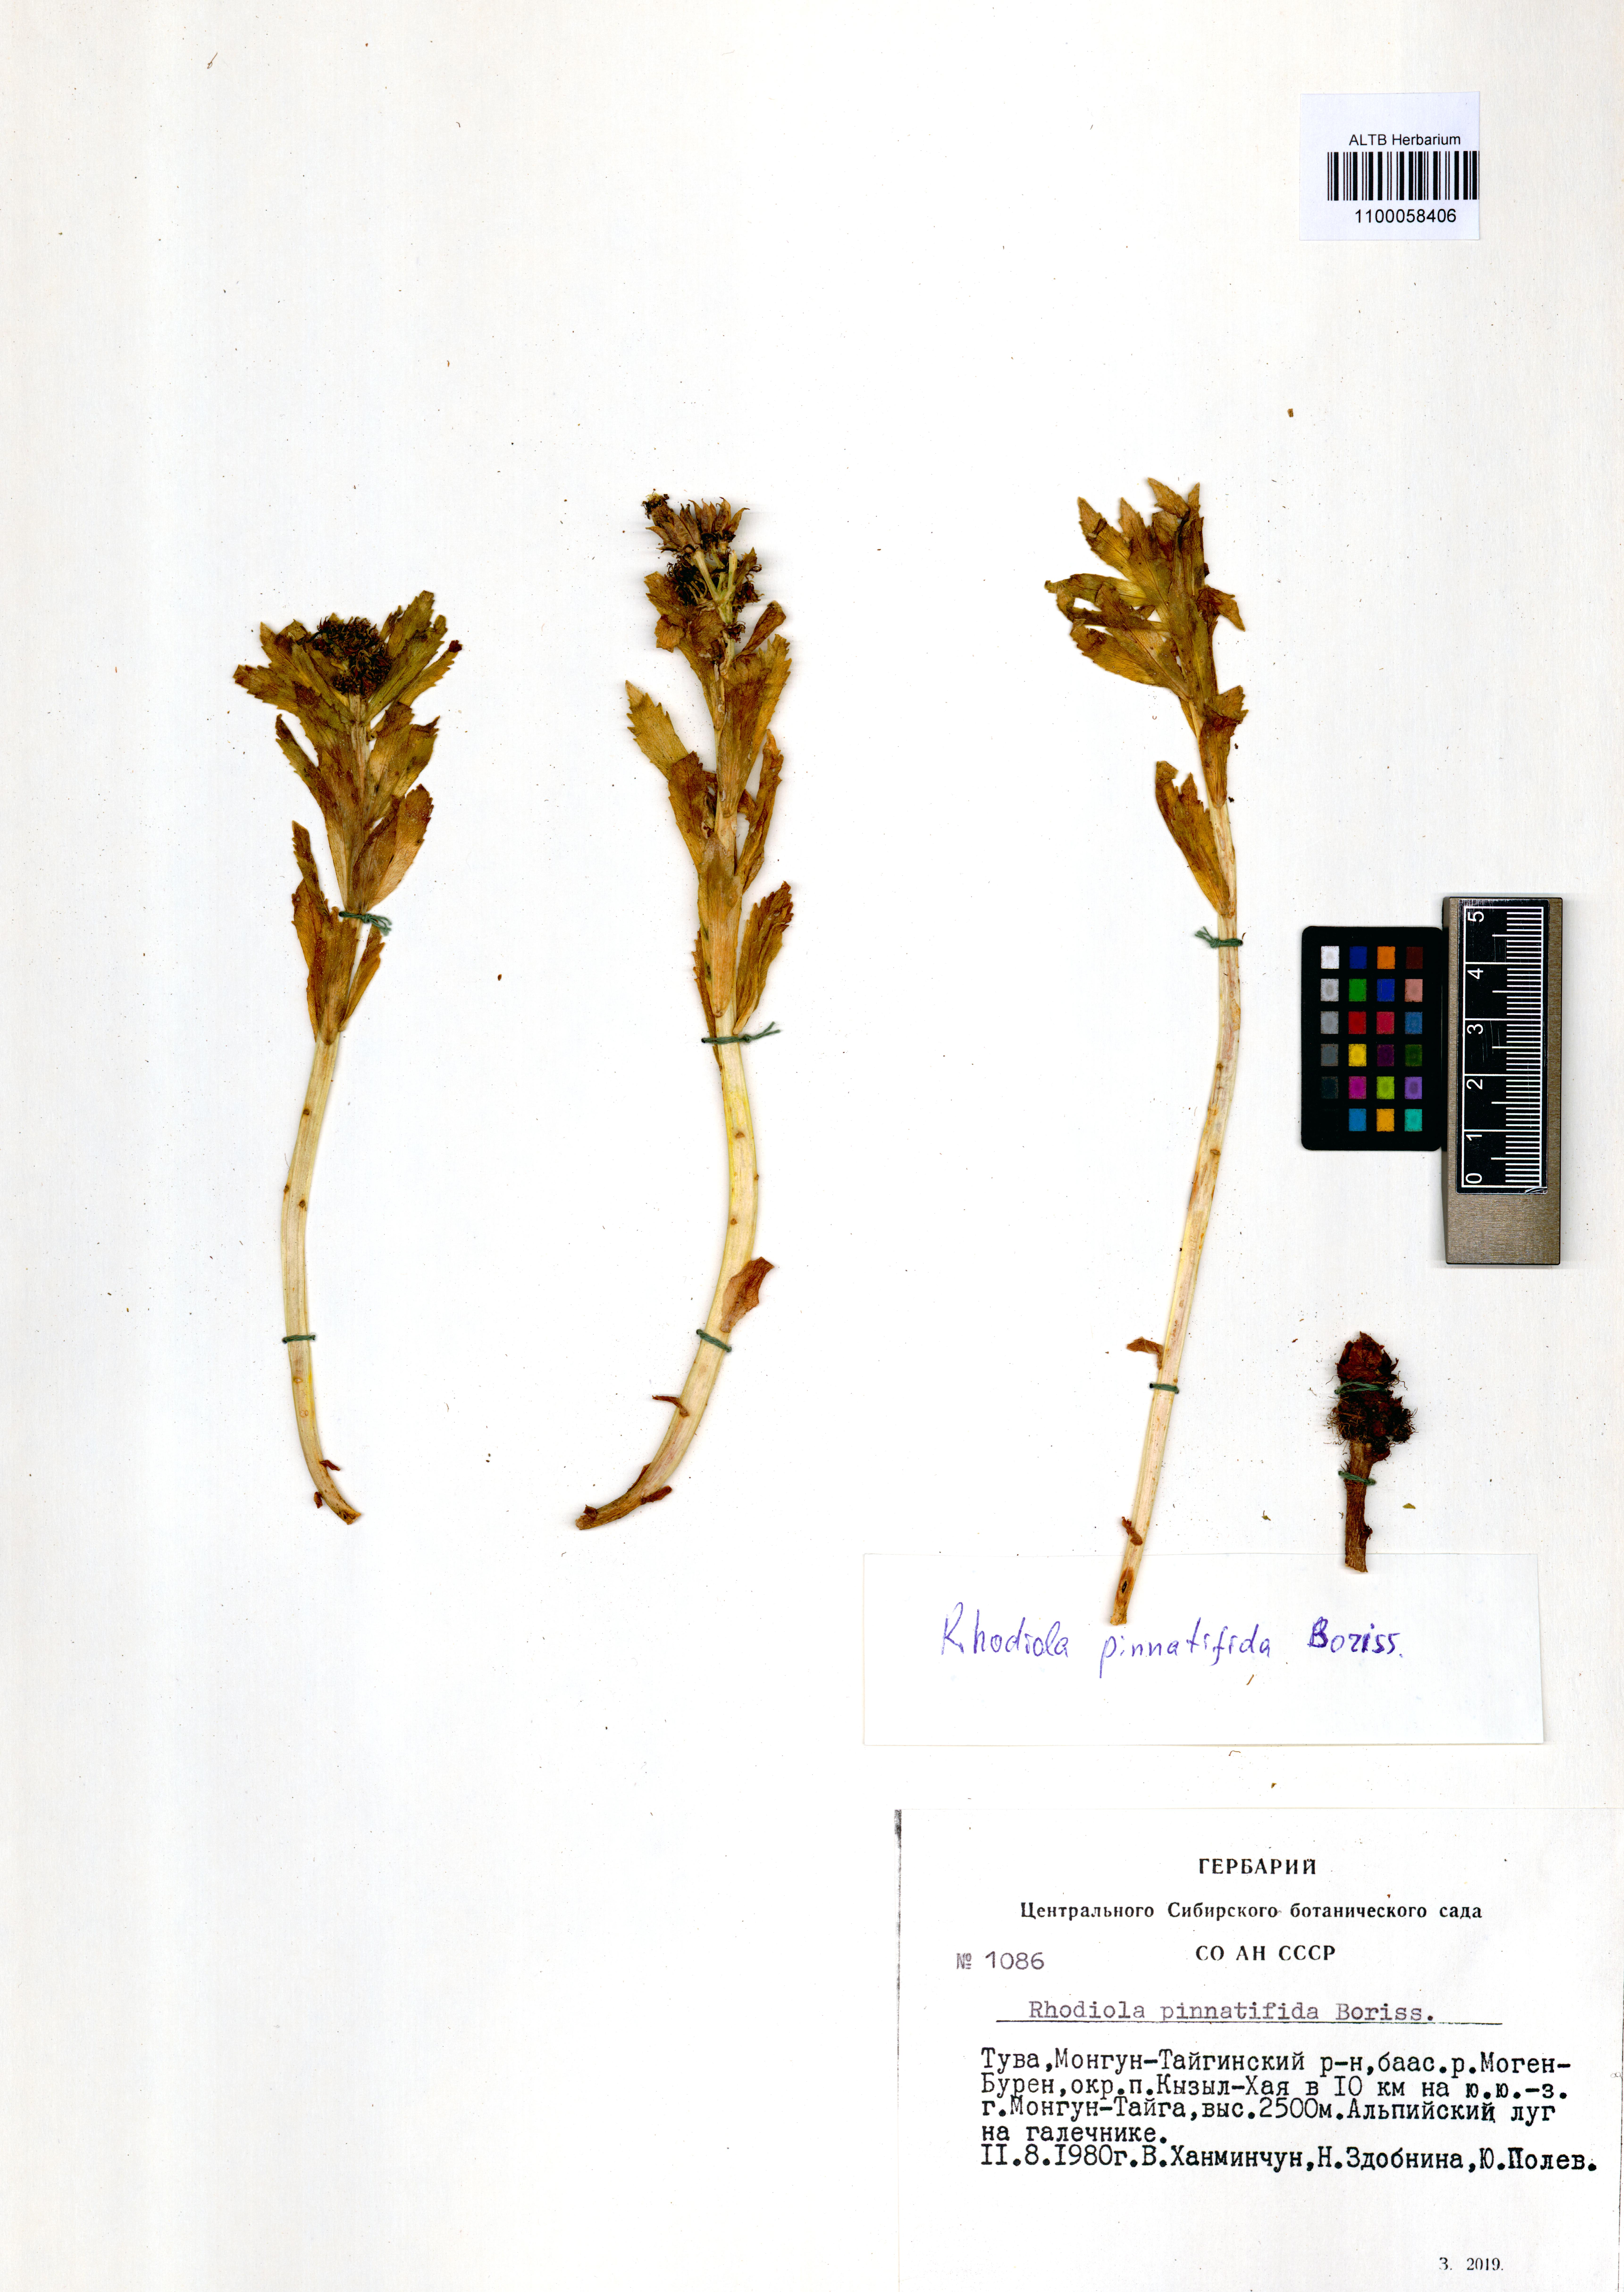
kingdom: Plantae
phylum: Tracheophyta
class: Magnoliopsida
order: Saxifragales
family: Crassulaceae
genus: Rhodiola
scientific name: Rhodiola stephani
